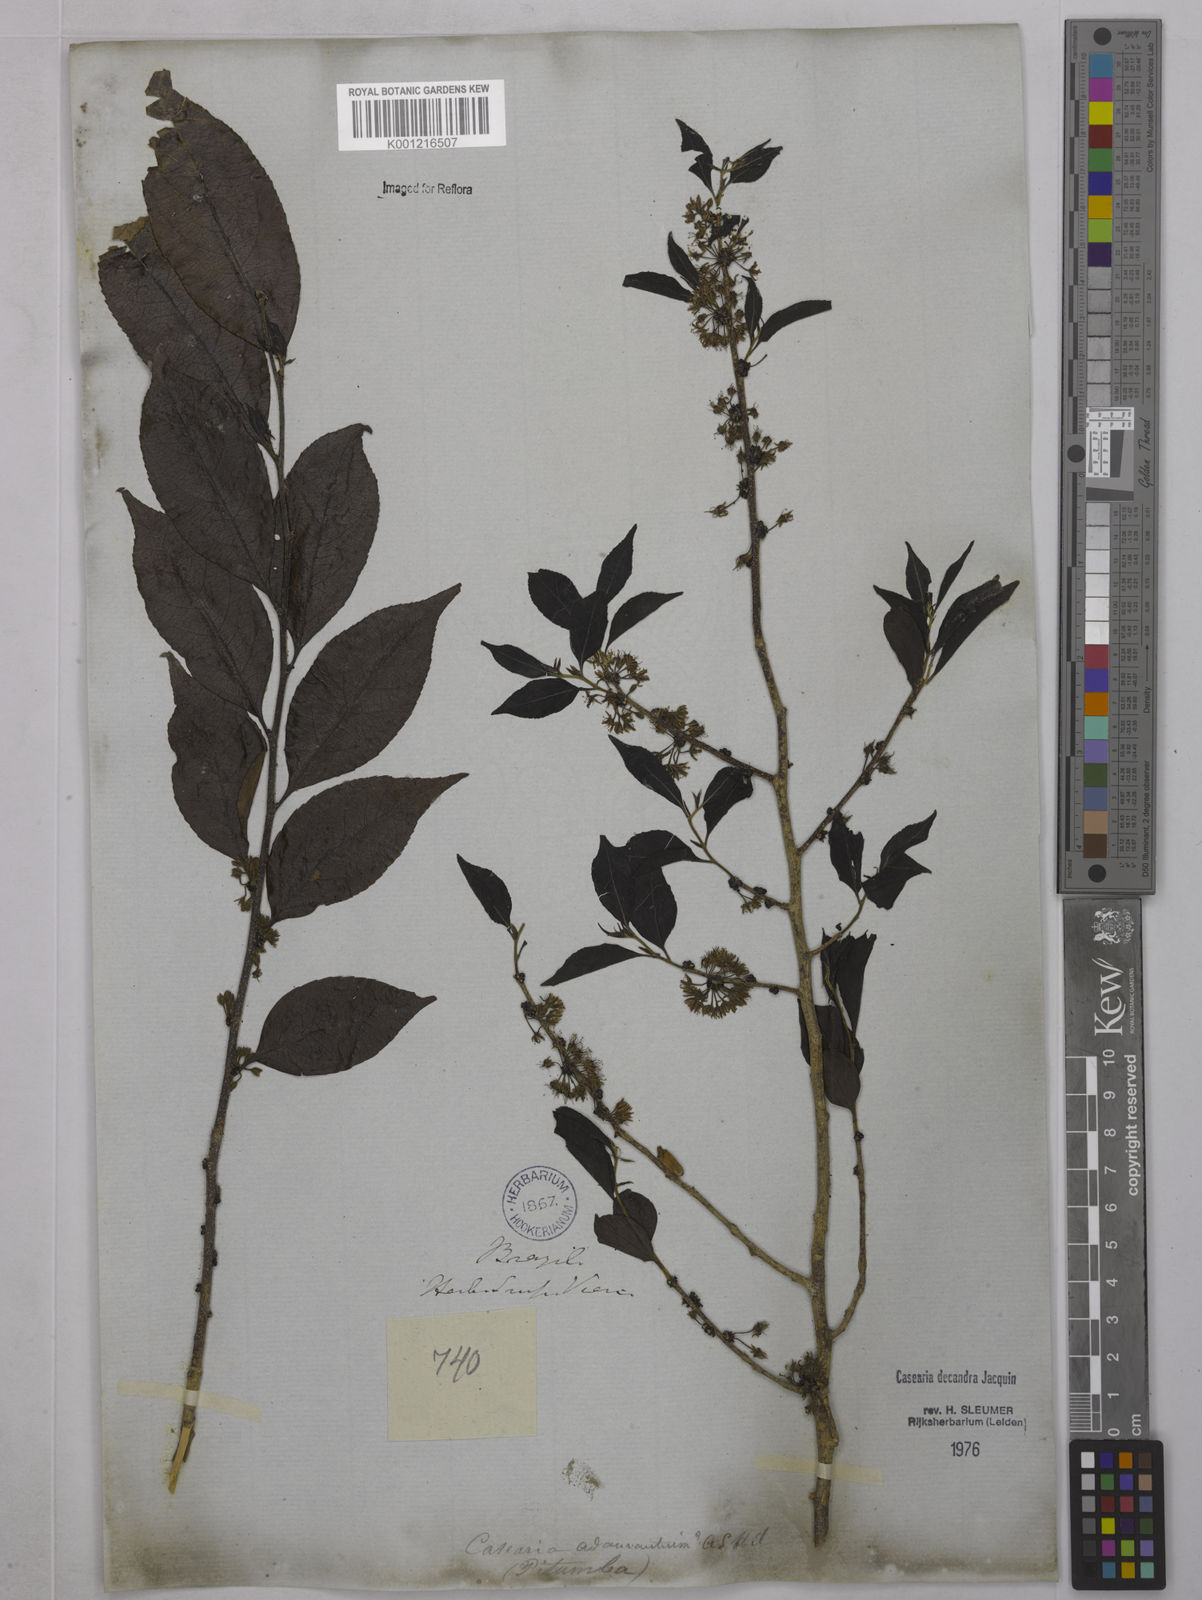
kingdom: Plantae
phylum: Tracheophyta
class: Magnoliopsida
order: Malpighiales
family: Salicaceae
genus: Casearia
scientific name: Casearia decandra
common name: Crack open
